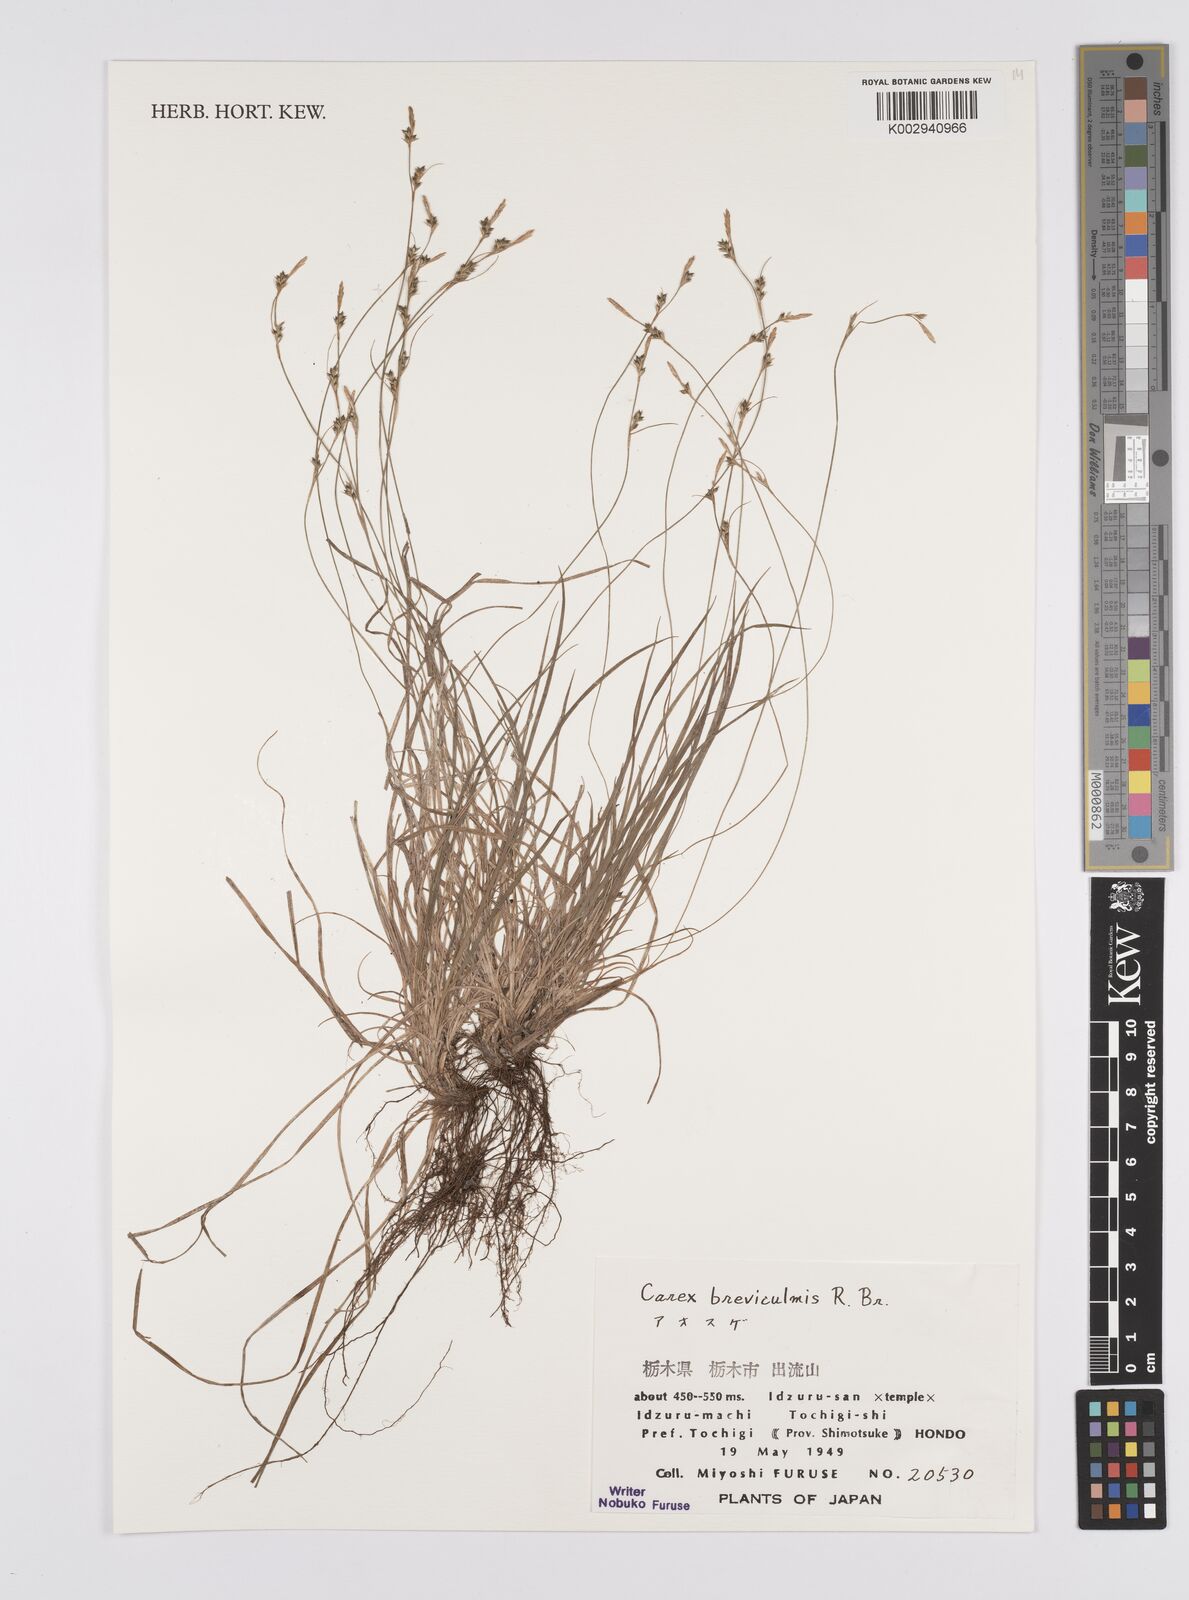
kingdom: Plantae
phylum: Tracheophyta
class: Liliopsida
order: Poales
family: Cyperaceae
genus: Carex
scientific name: Carex fibrillosa
